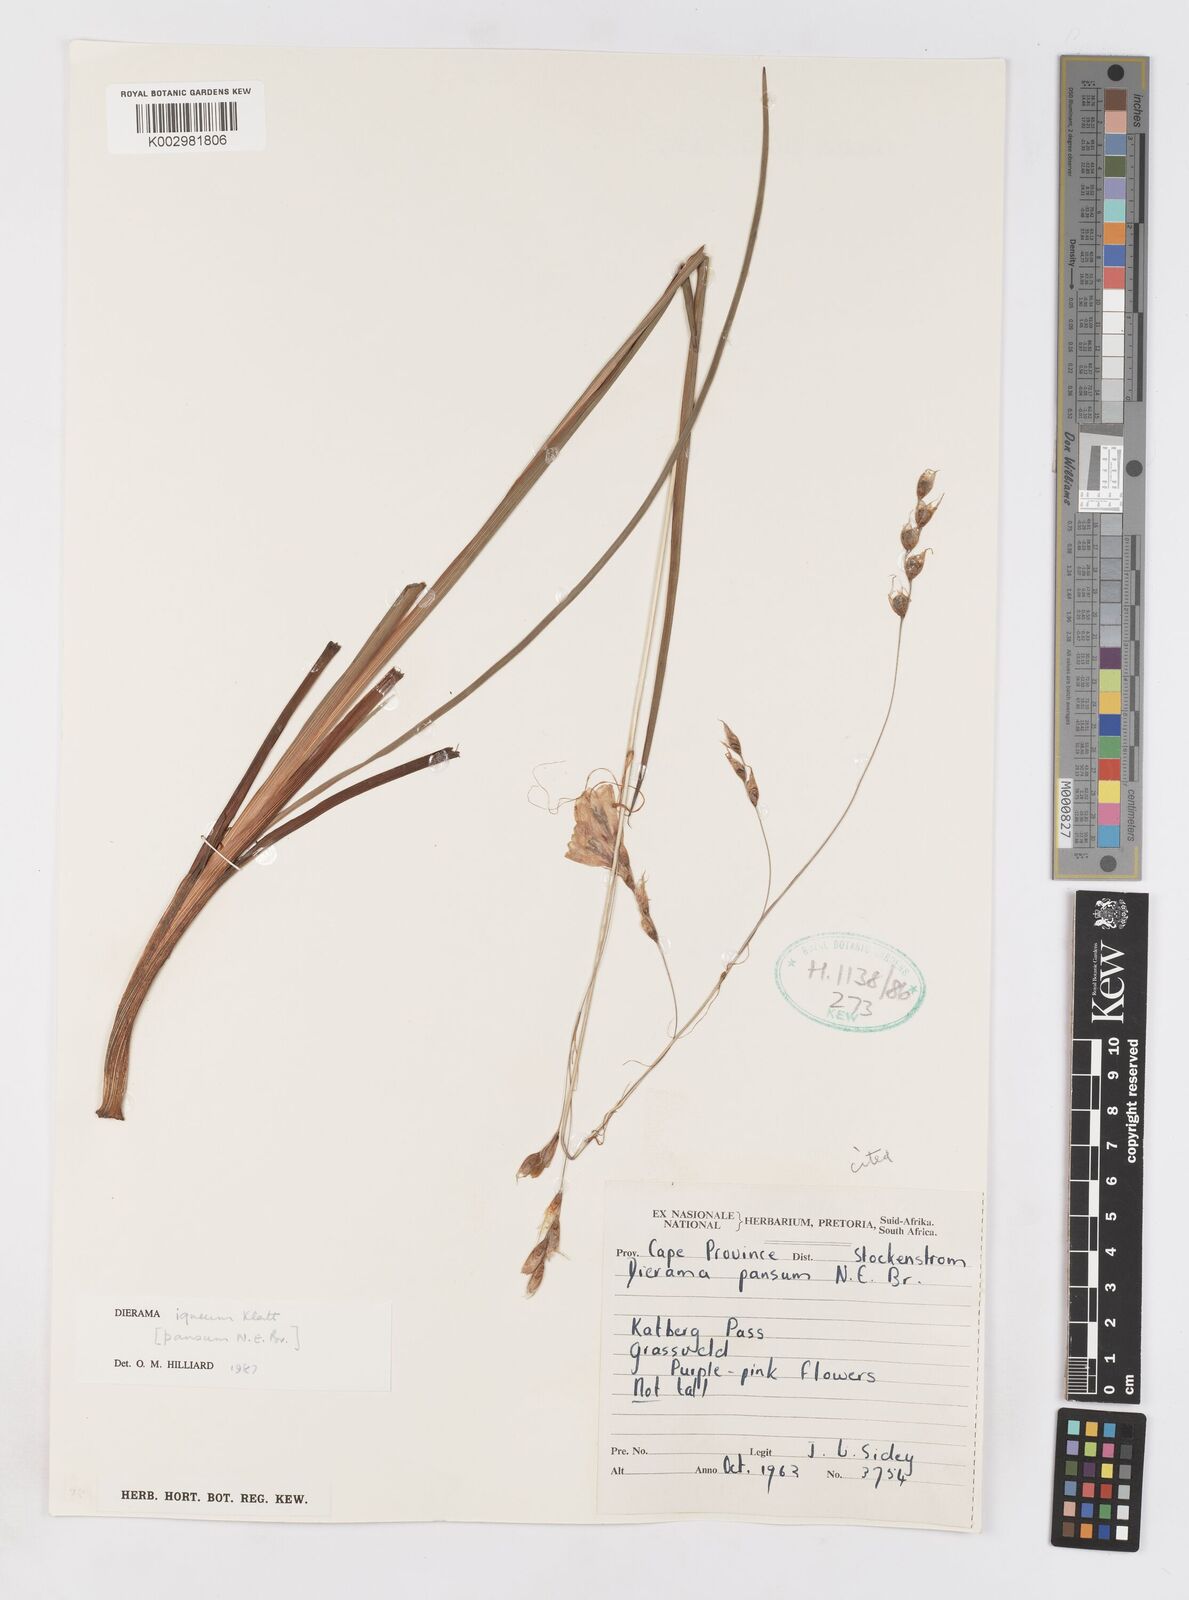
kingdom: Plantae
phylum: Tracheophyta
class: Liliopsida
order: Asparagales
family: Iridaceae
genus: Dierama
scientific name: Dierama igneum
